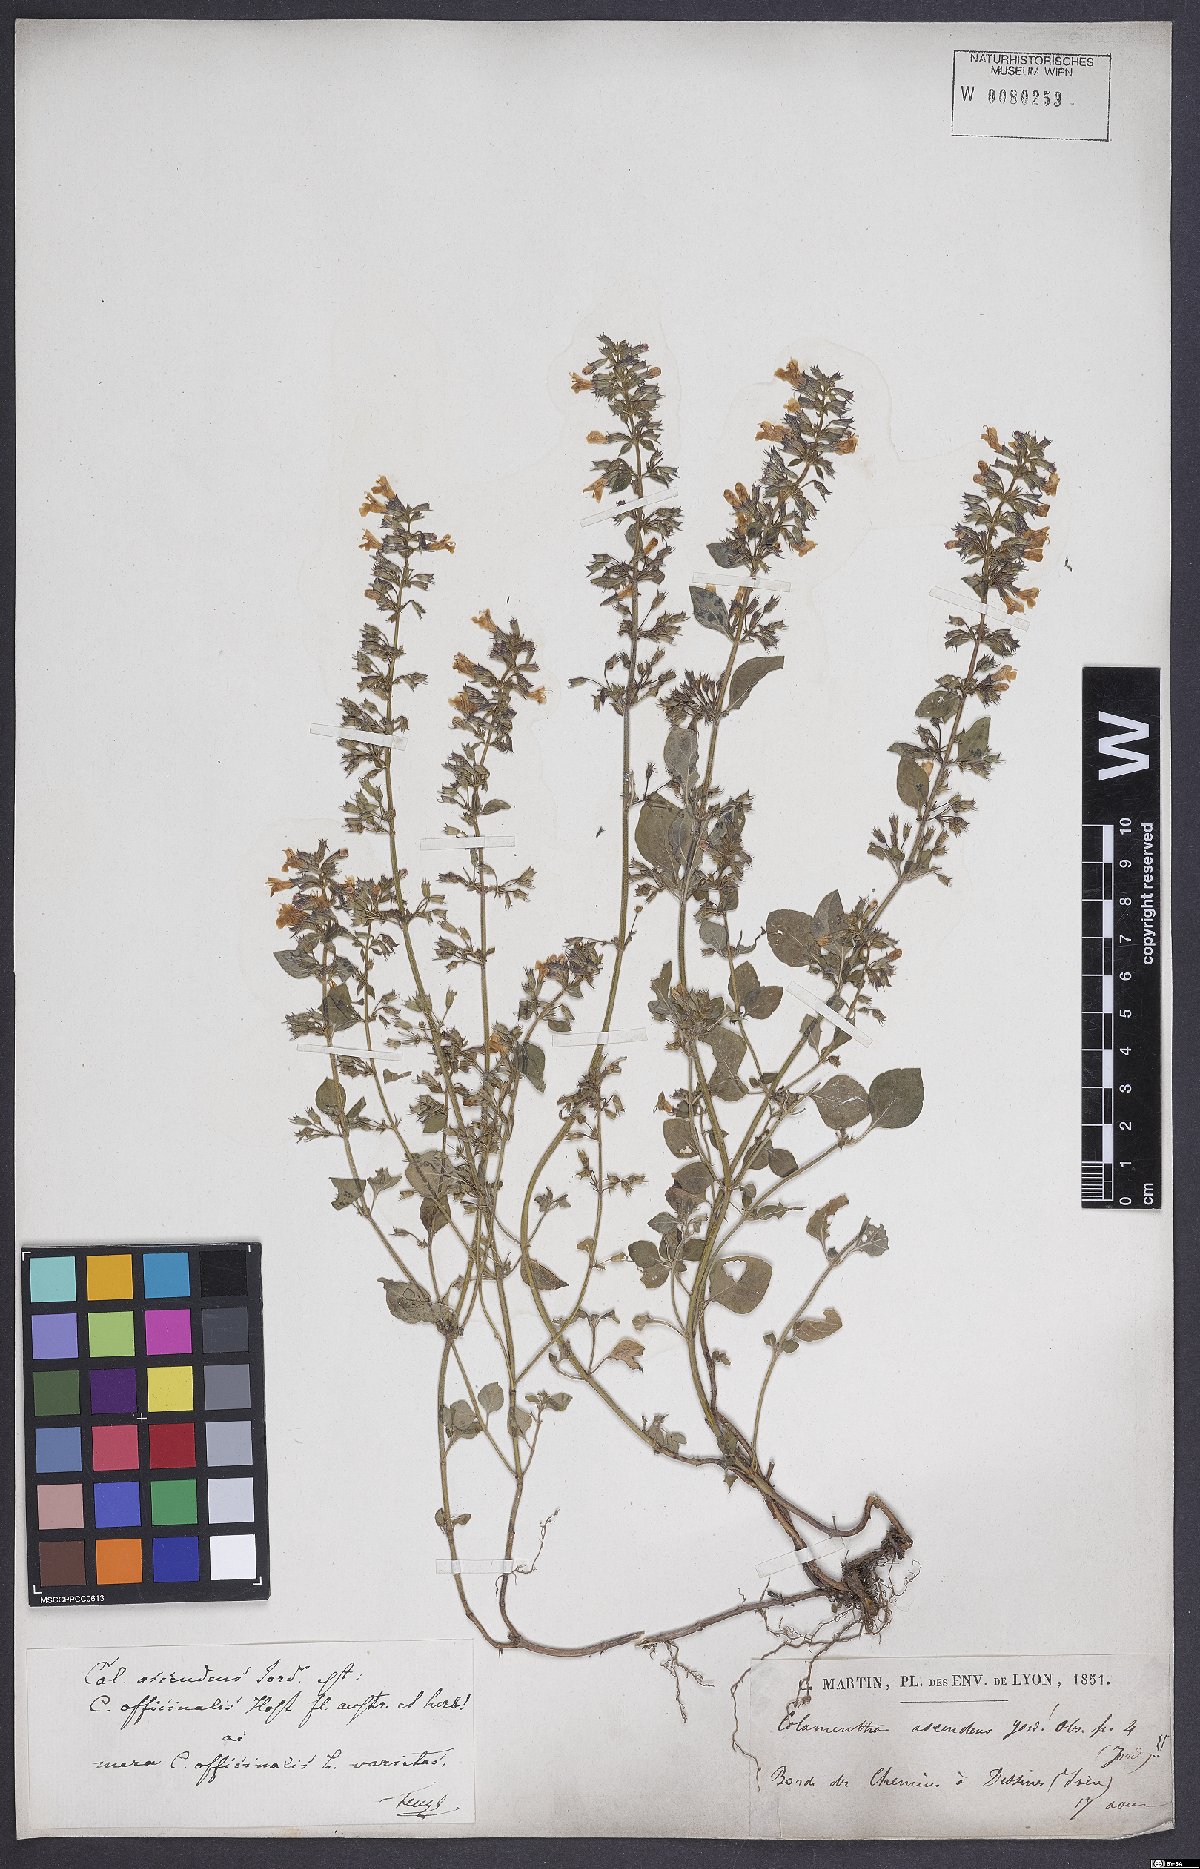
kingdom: Plantae
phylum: Tracheophyta
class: Magnoliopsida
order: Lamiales
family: Lamiaceae
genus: Clinopodium
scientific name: Clinopodium menthifolium
